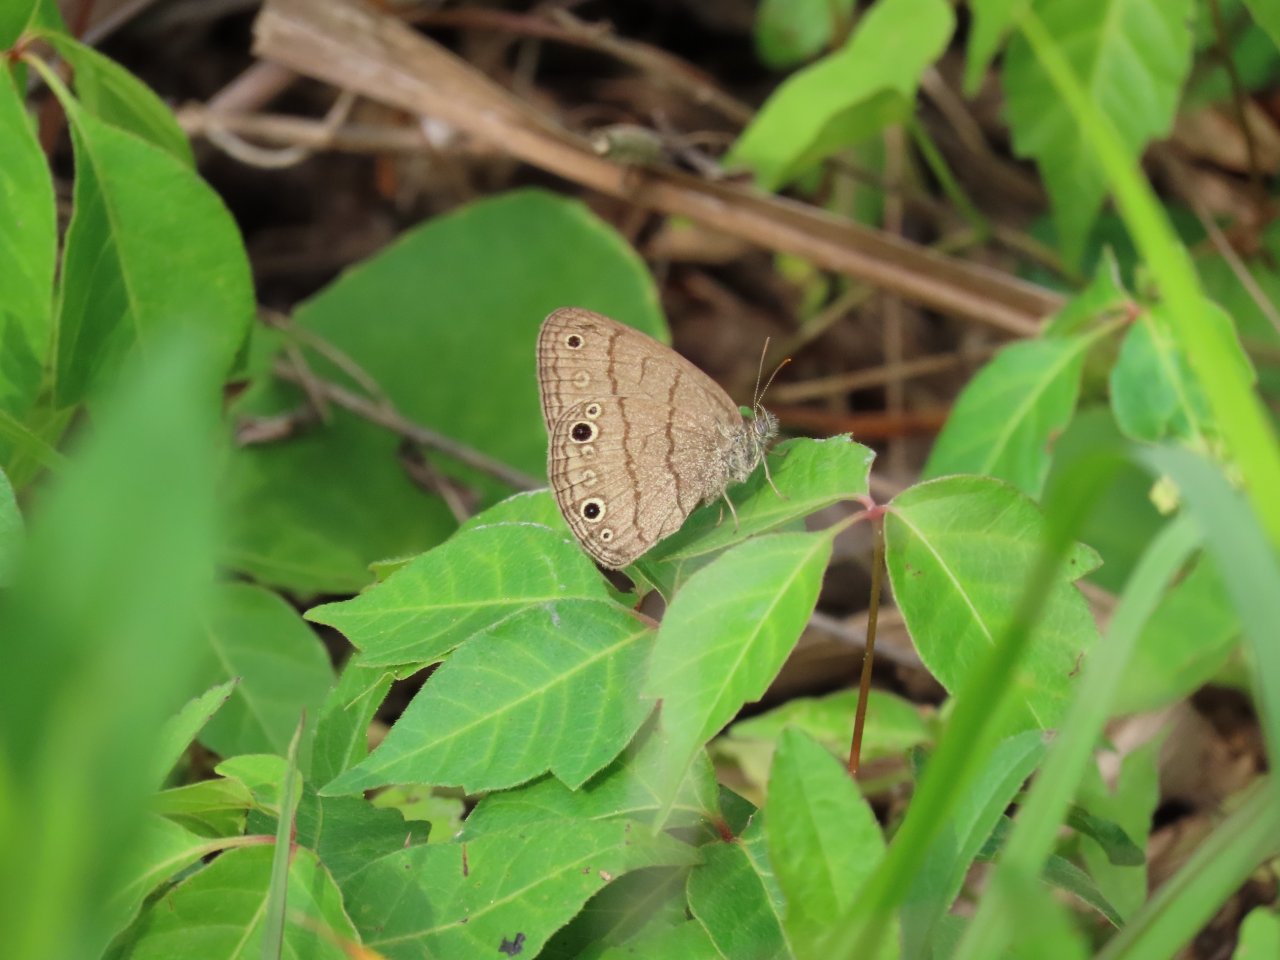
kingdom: Animalia
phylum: Arthropoda
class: Insecta
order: Lepidoptera
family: Nymphalidae
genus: Hermeuptychia
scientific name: Hermeuptychia hermes
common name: Carolina Satyr
